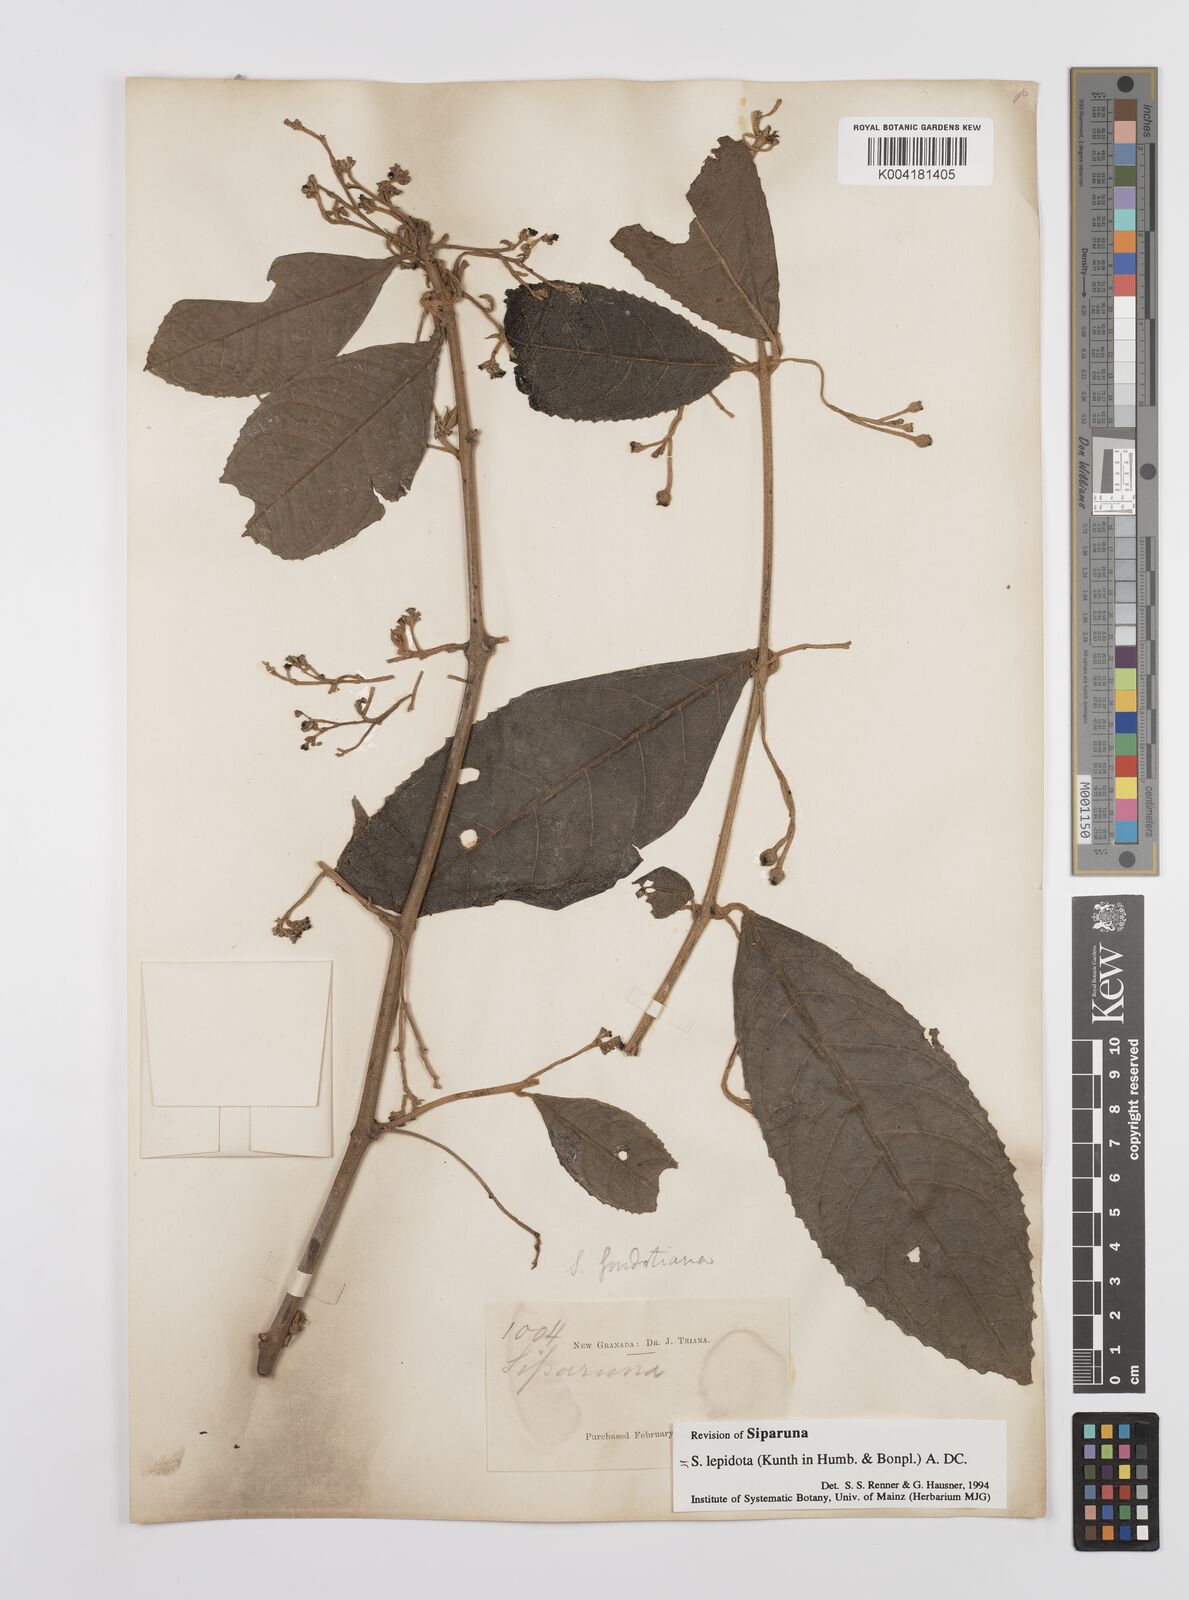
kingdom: Plantae
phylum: Tracheophyta
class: Magnoliopsida
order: Laurales
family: Siparunaceae
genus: Siparuna
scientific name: Siparuna lepidota
